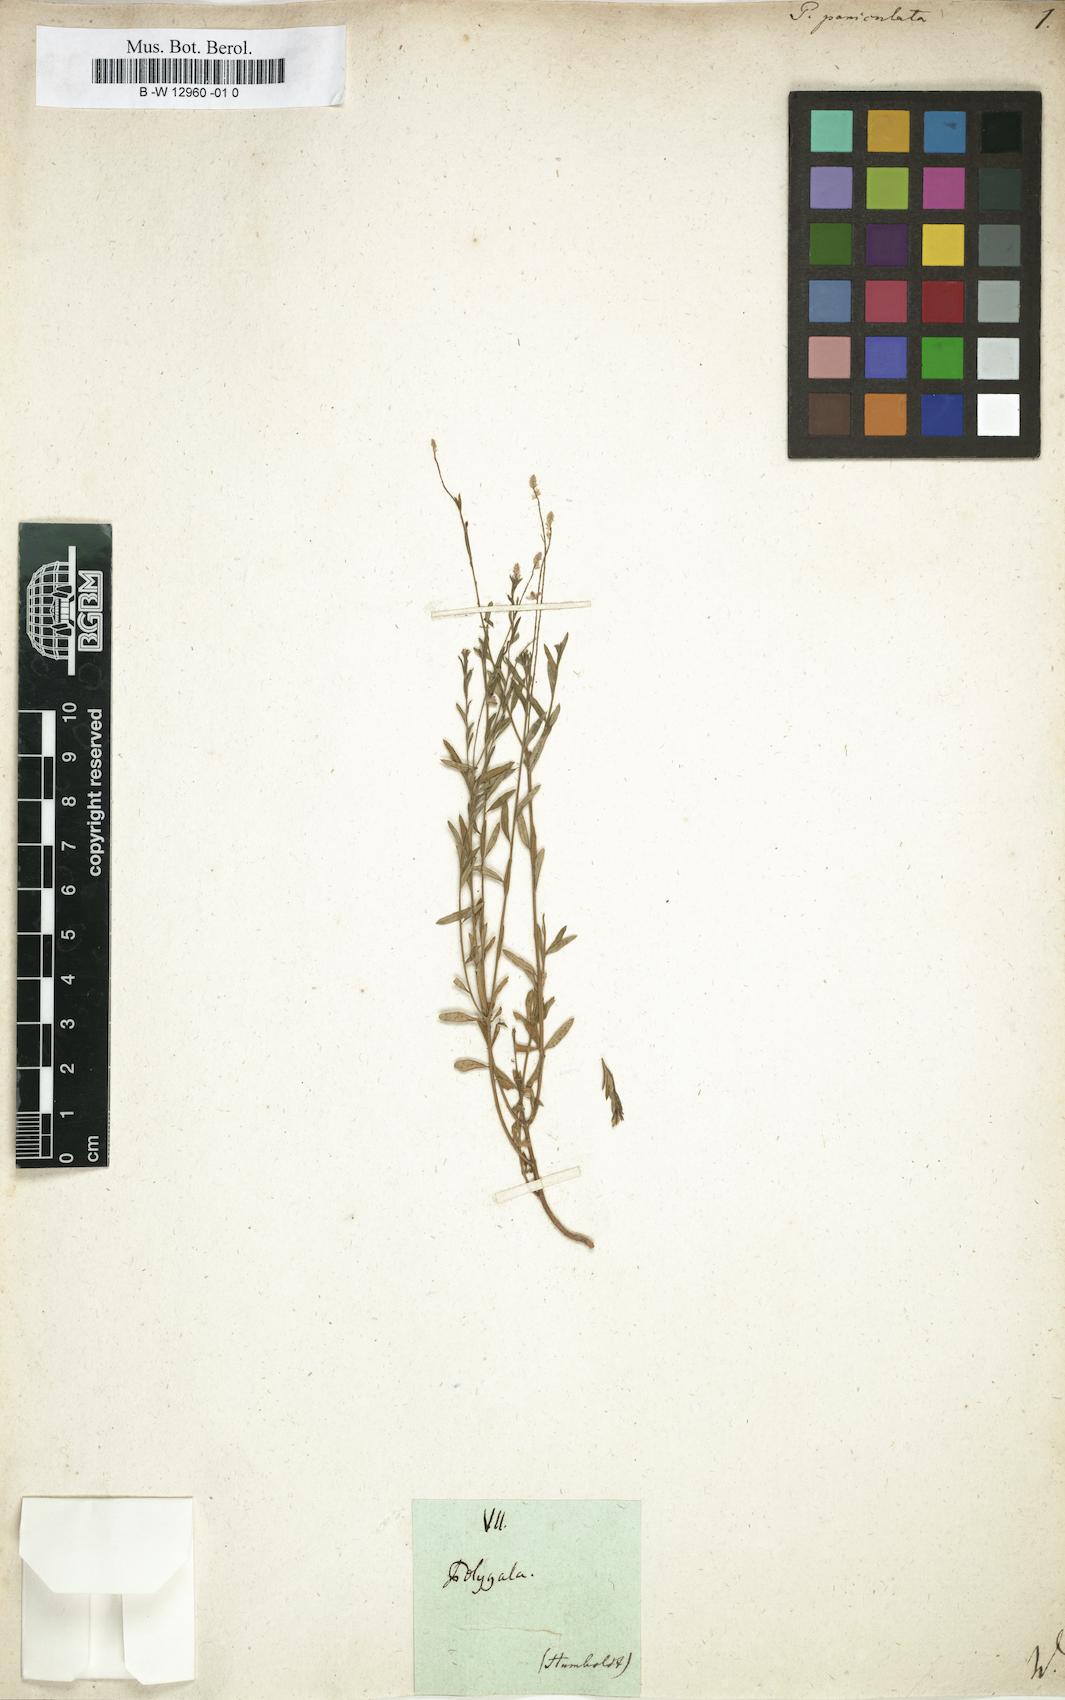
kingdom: Plantae
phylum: Tracheophyta
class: Magnoliopsida
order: Fabales
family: Polygalaceae
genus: Polygala
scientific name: Polygala paniculata
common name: Orosne
